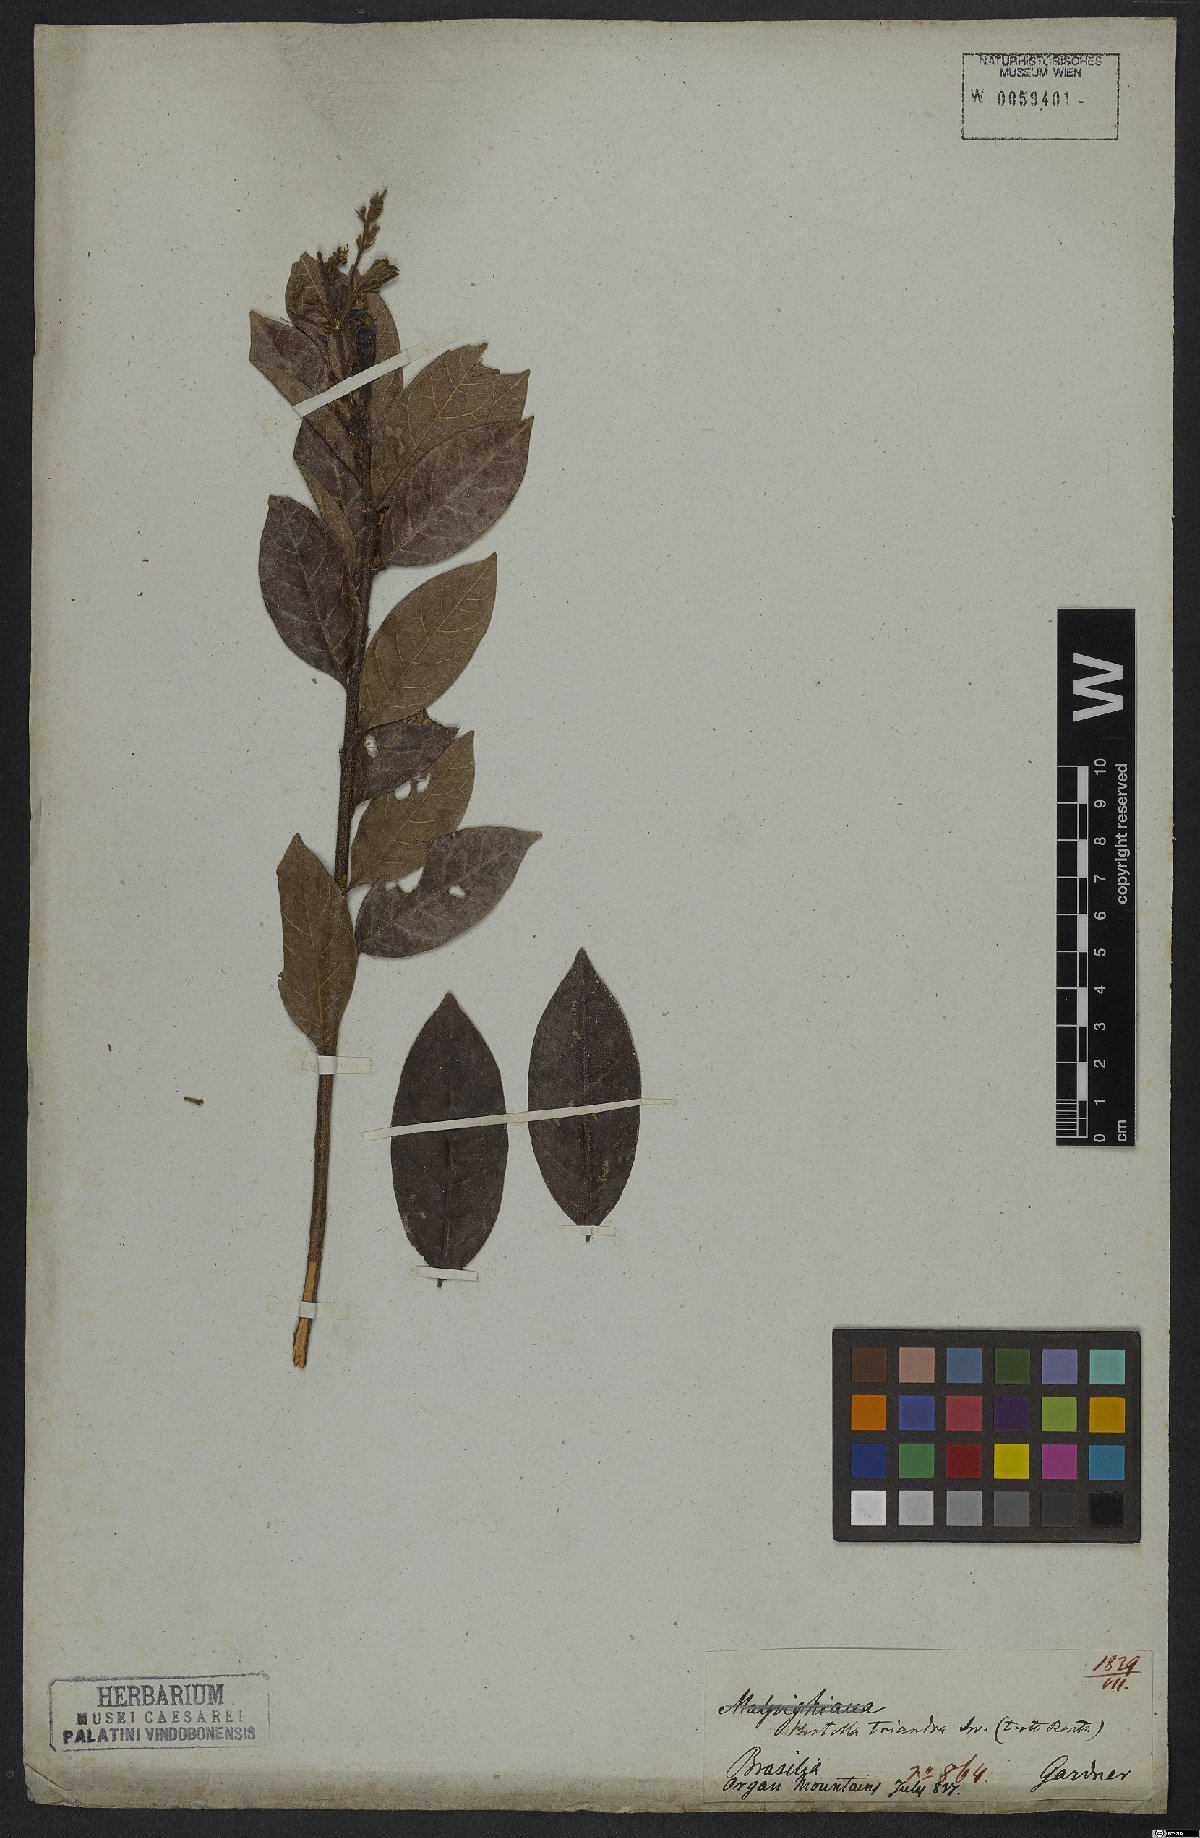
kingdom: Plantae
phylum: Tracheophyta
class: Magnoliopsida
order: Malpighiales
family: Chrysobalanaceae
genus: Hirtella
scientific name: Hirtella triandra
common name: Hairy plum
